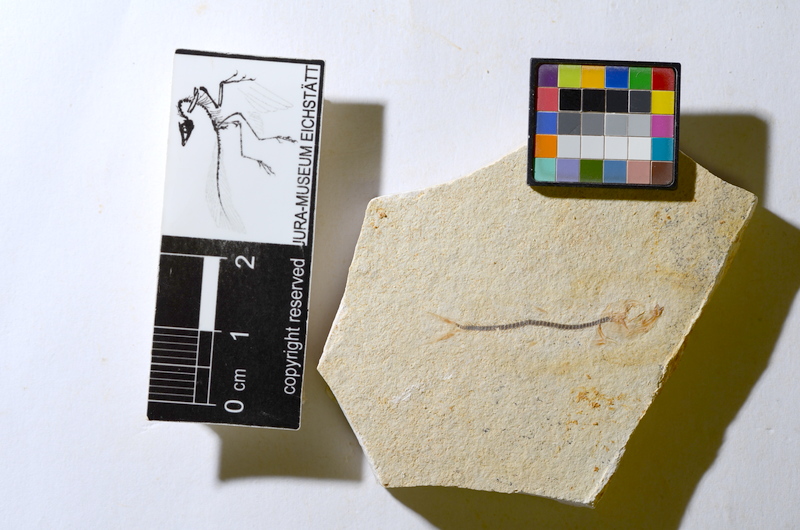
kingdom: Animalia
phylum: Chordata
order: Salmoniformes
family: Orthogonikleithridae
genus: Orthogonikleithrus
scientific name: Orthogonikleithrus hoelli
